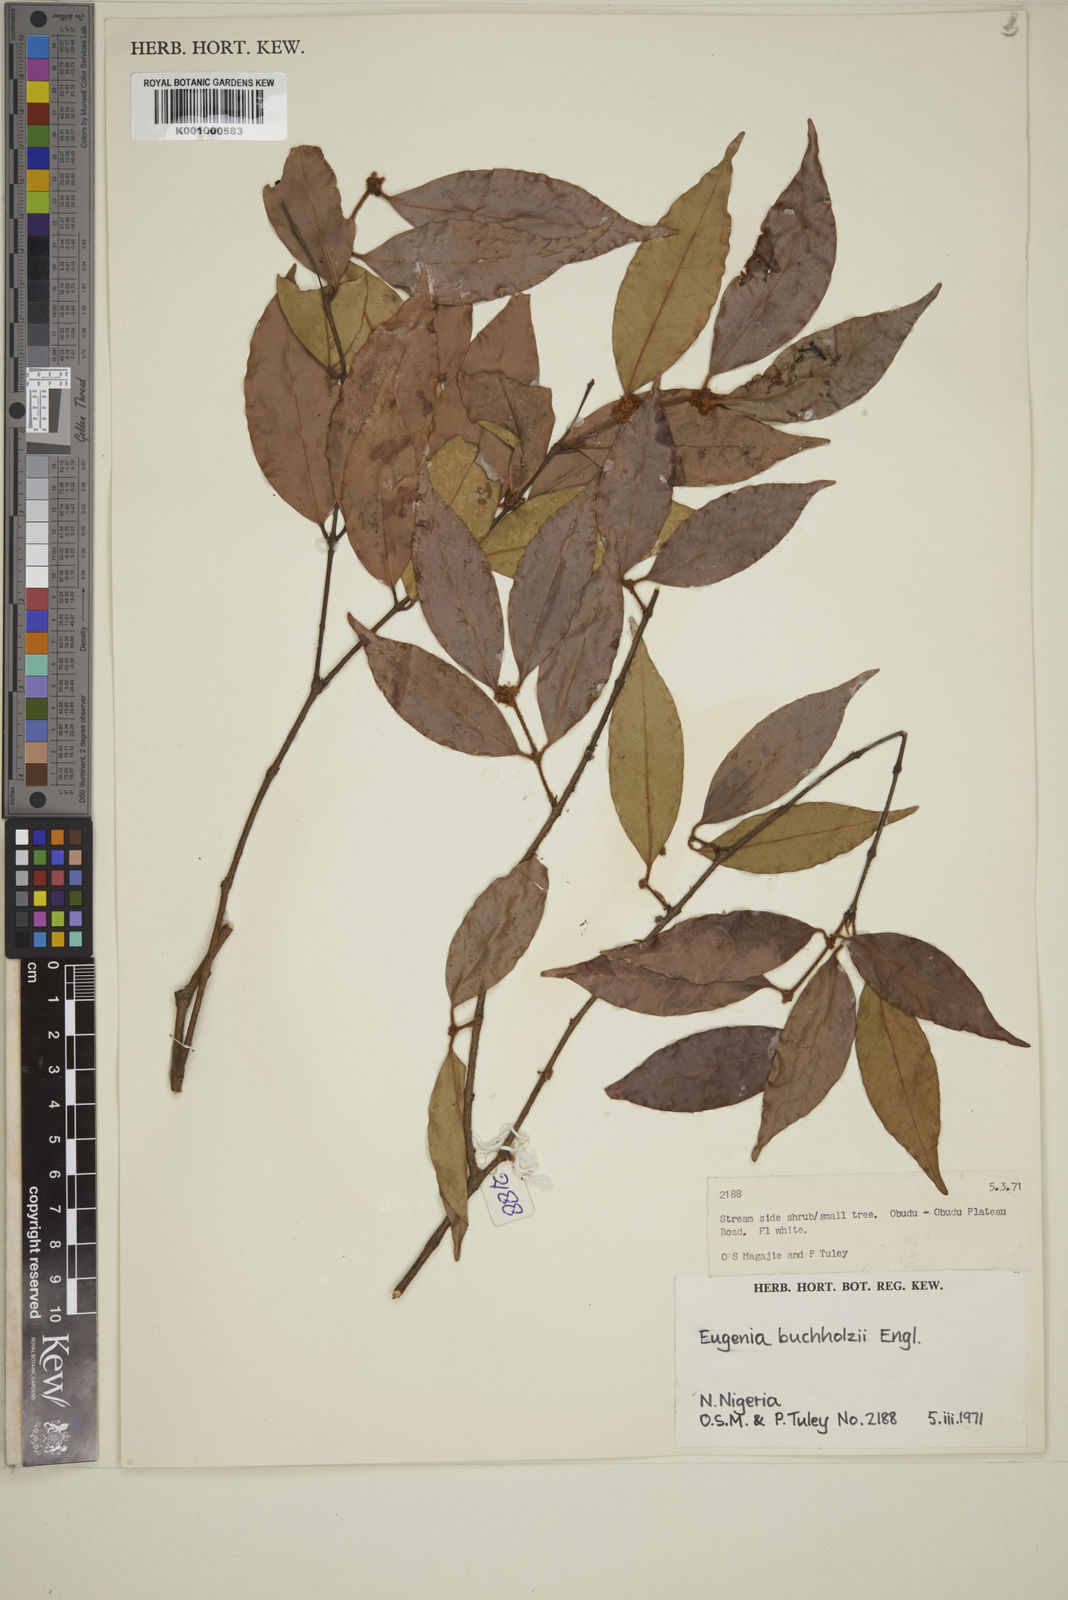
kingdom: Plantae
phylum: Tracheophyta
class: Magnoliopsida
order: Myrtales
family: Myrtaceae
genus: Eugenia
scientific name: Eugenia buchholzii
